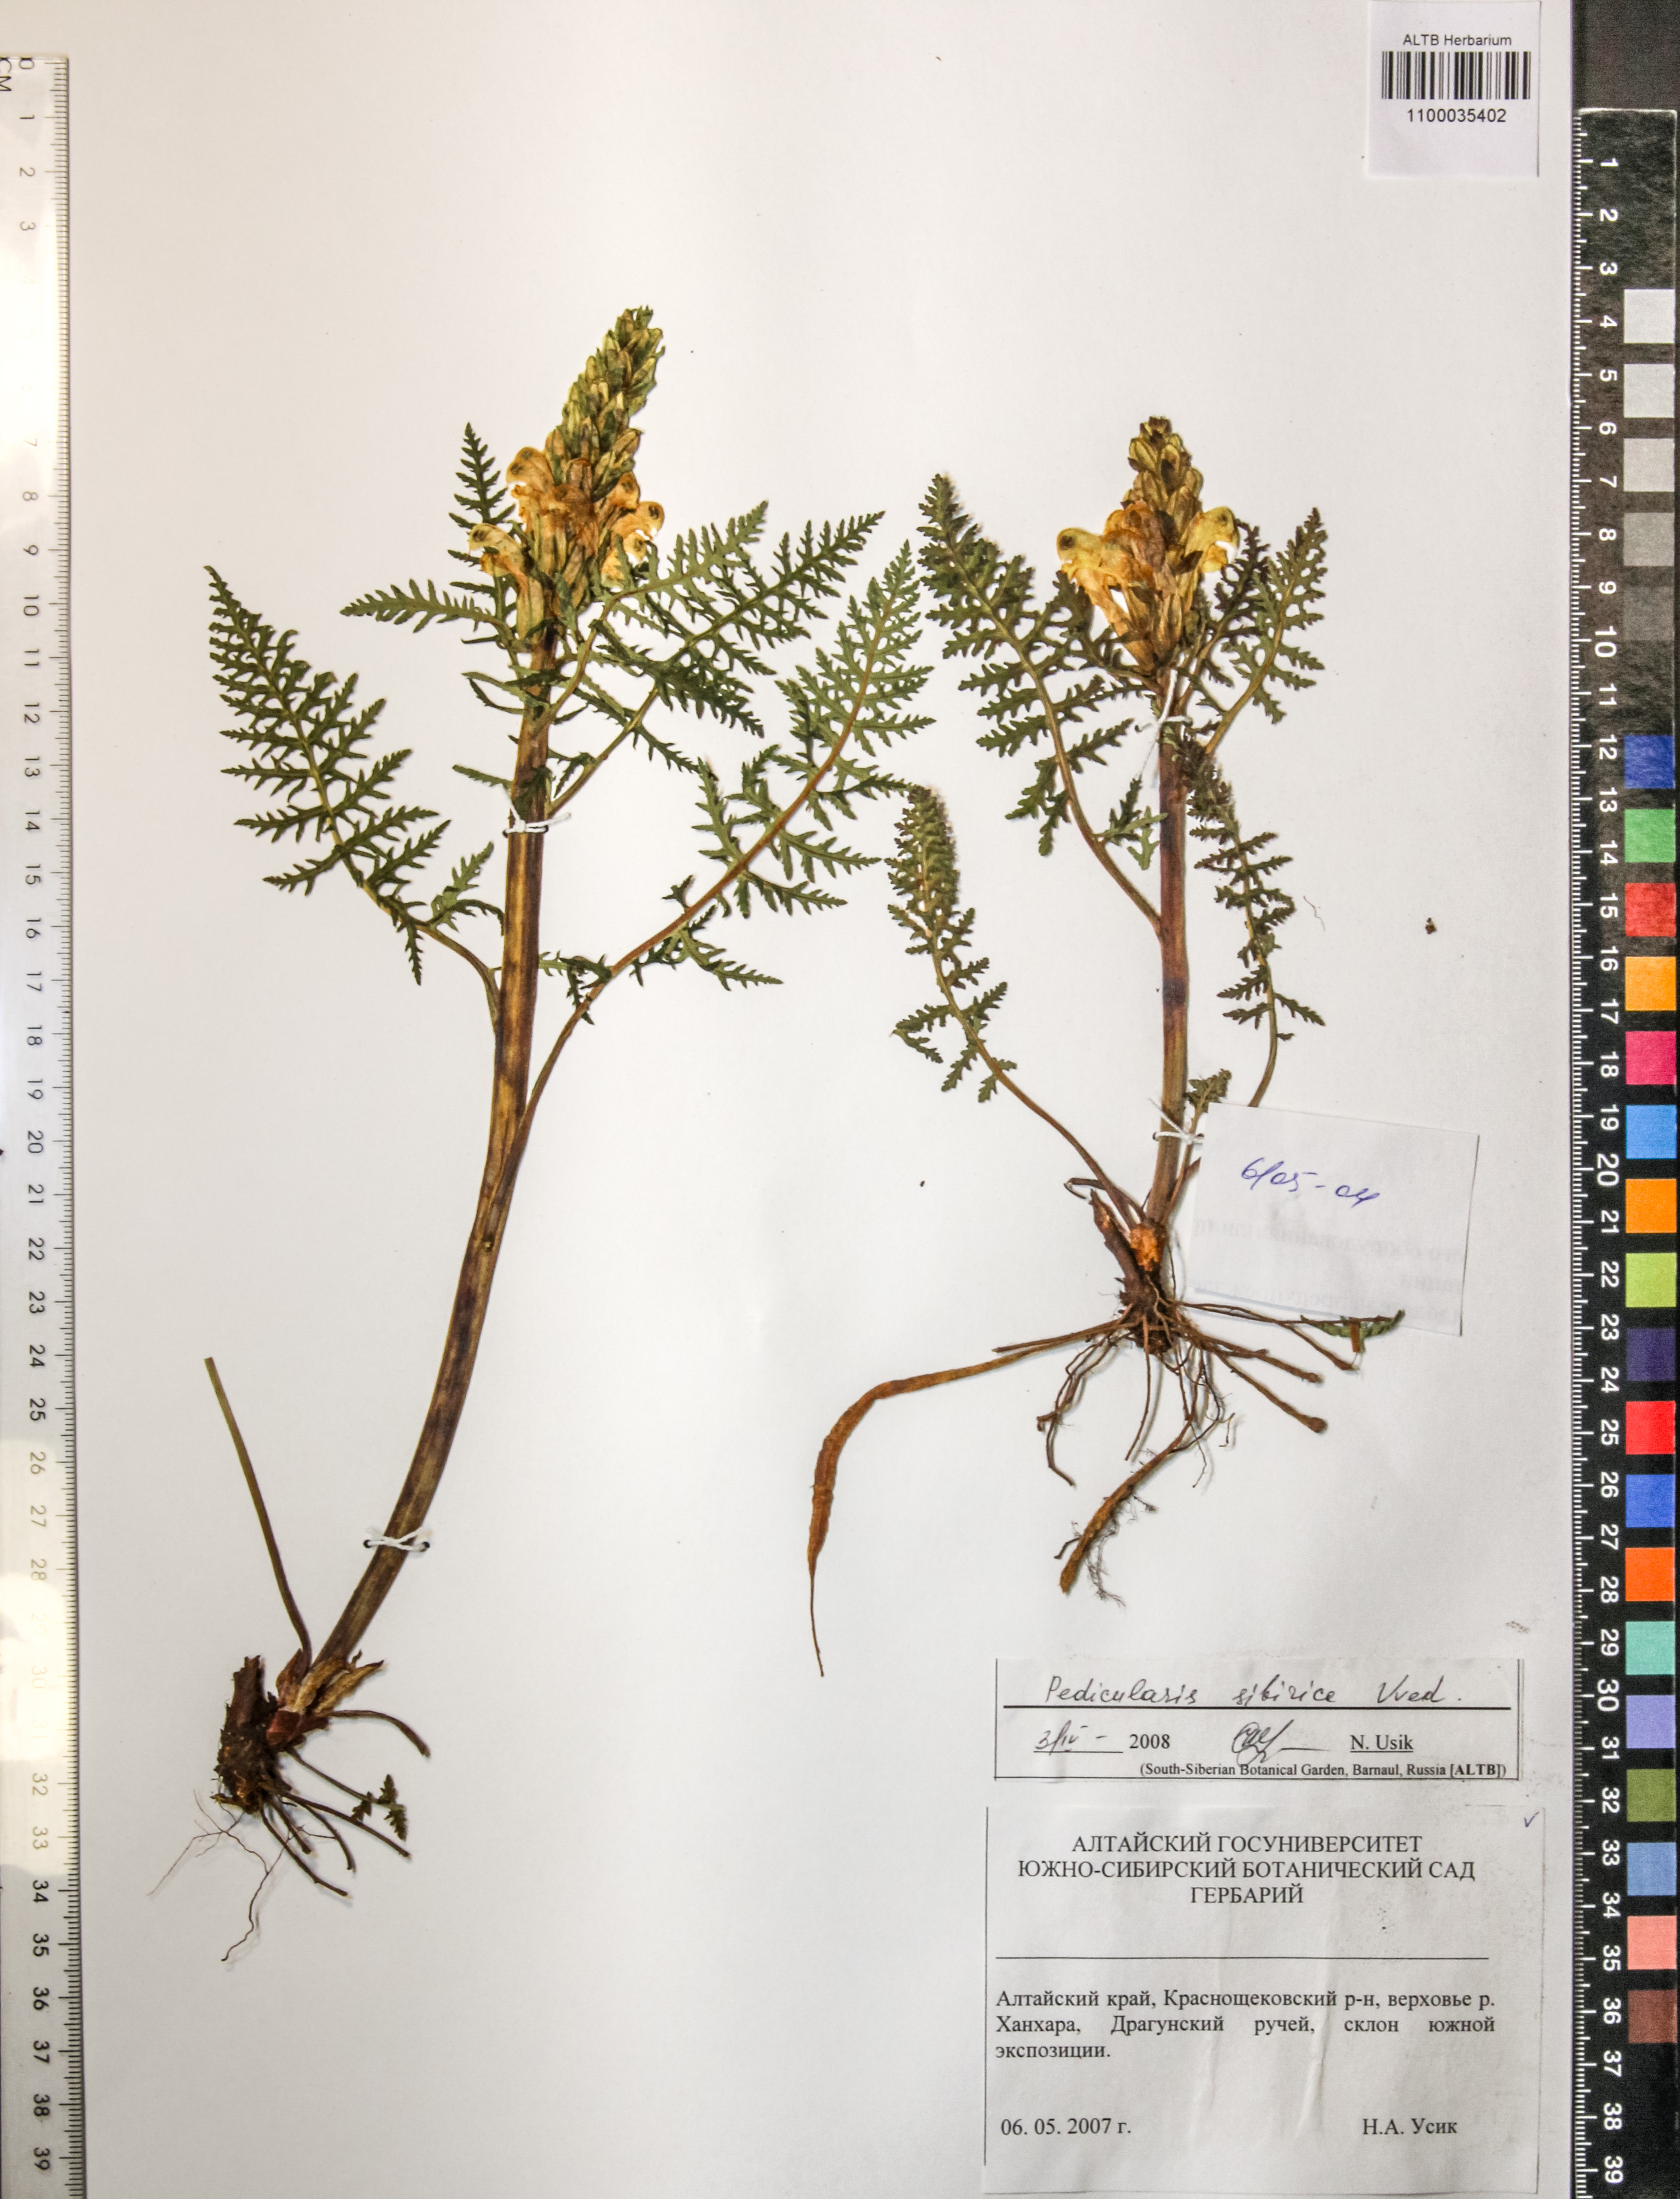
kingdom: Plantae
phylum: Tracheophyta
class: Magnoliopsida
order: Lamiales
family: Orobanchaceae
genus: Pedicularis
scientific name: Pedicularis sibirica
